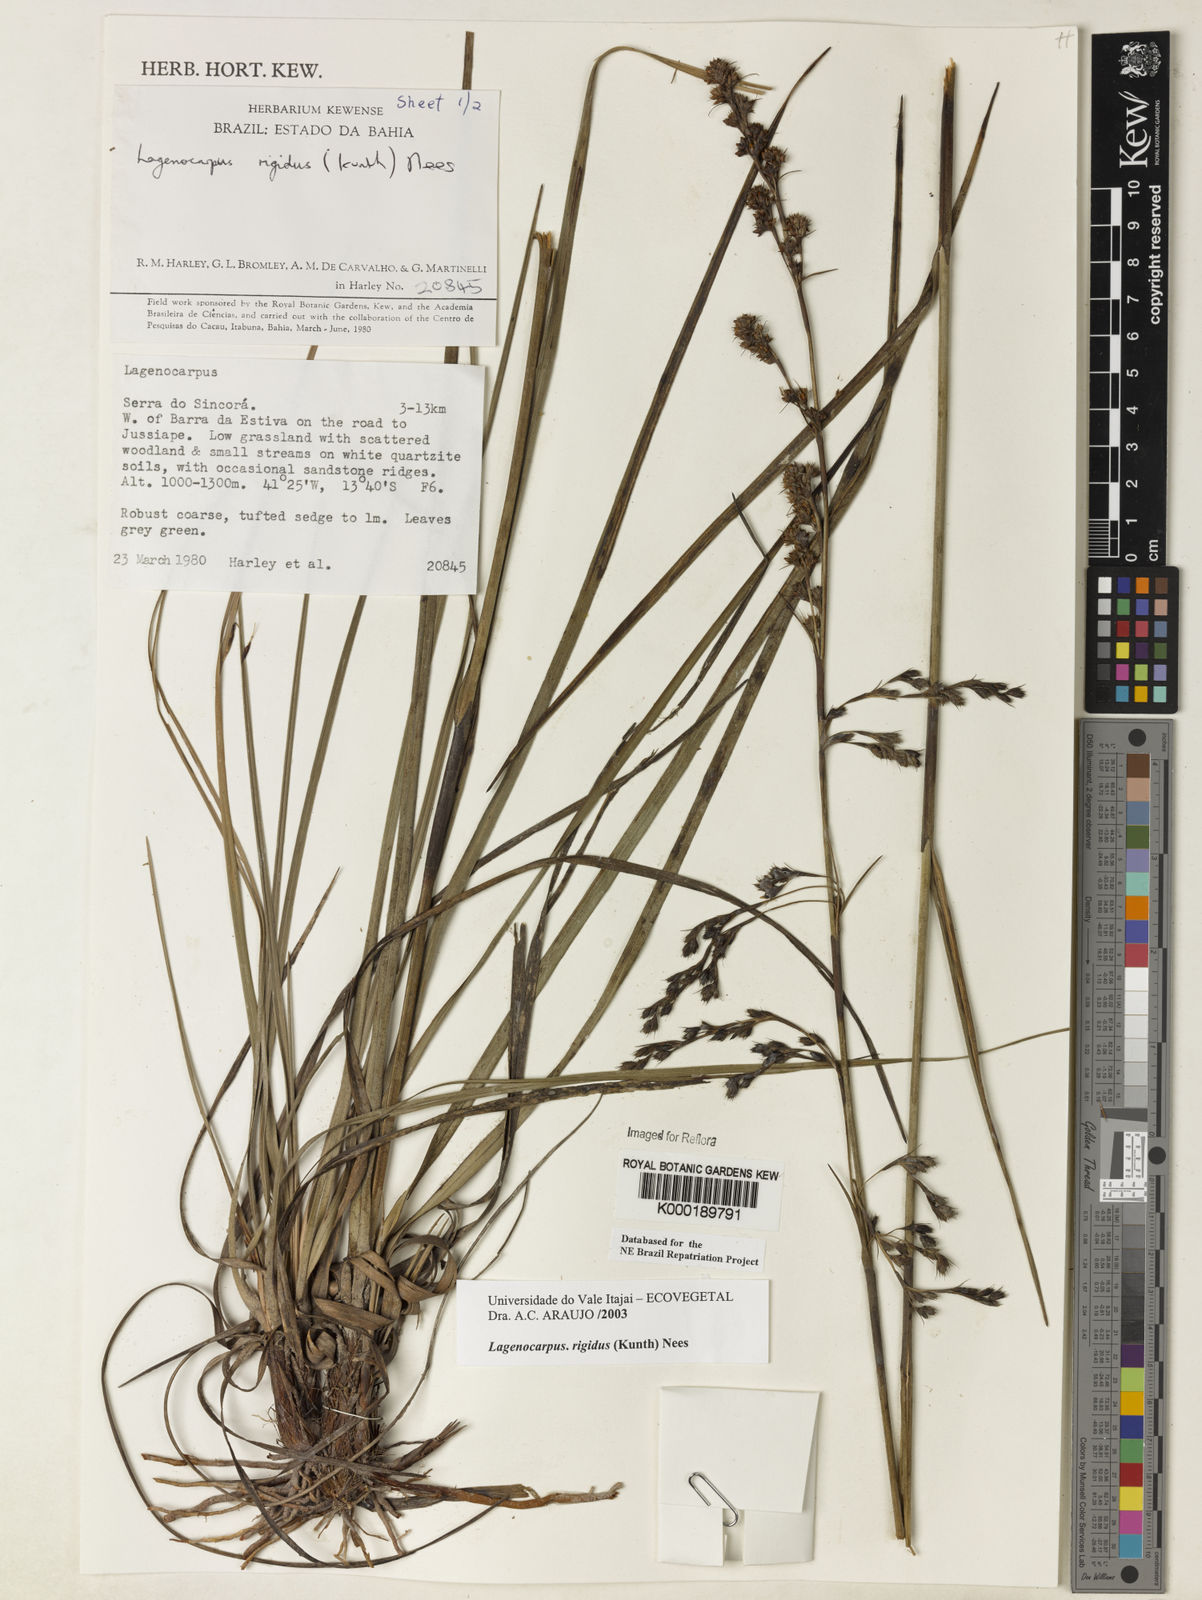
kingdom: Plantae
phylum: Tracheophyta
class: Liliopsida
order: Poales
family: Cyperaceae
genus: Lagenocarpus
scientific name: Lagenocarpus rigidus
